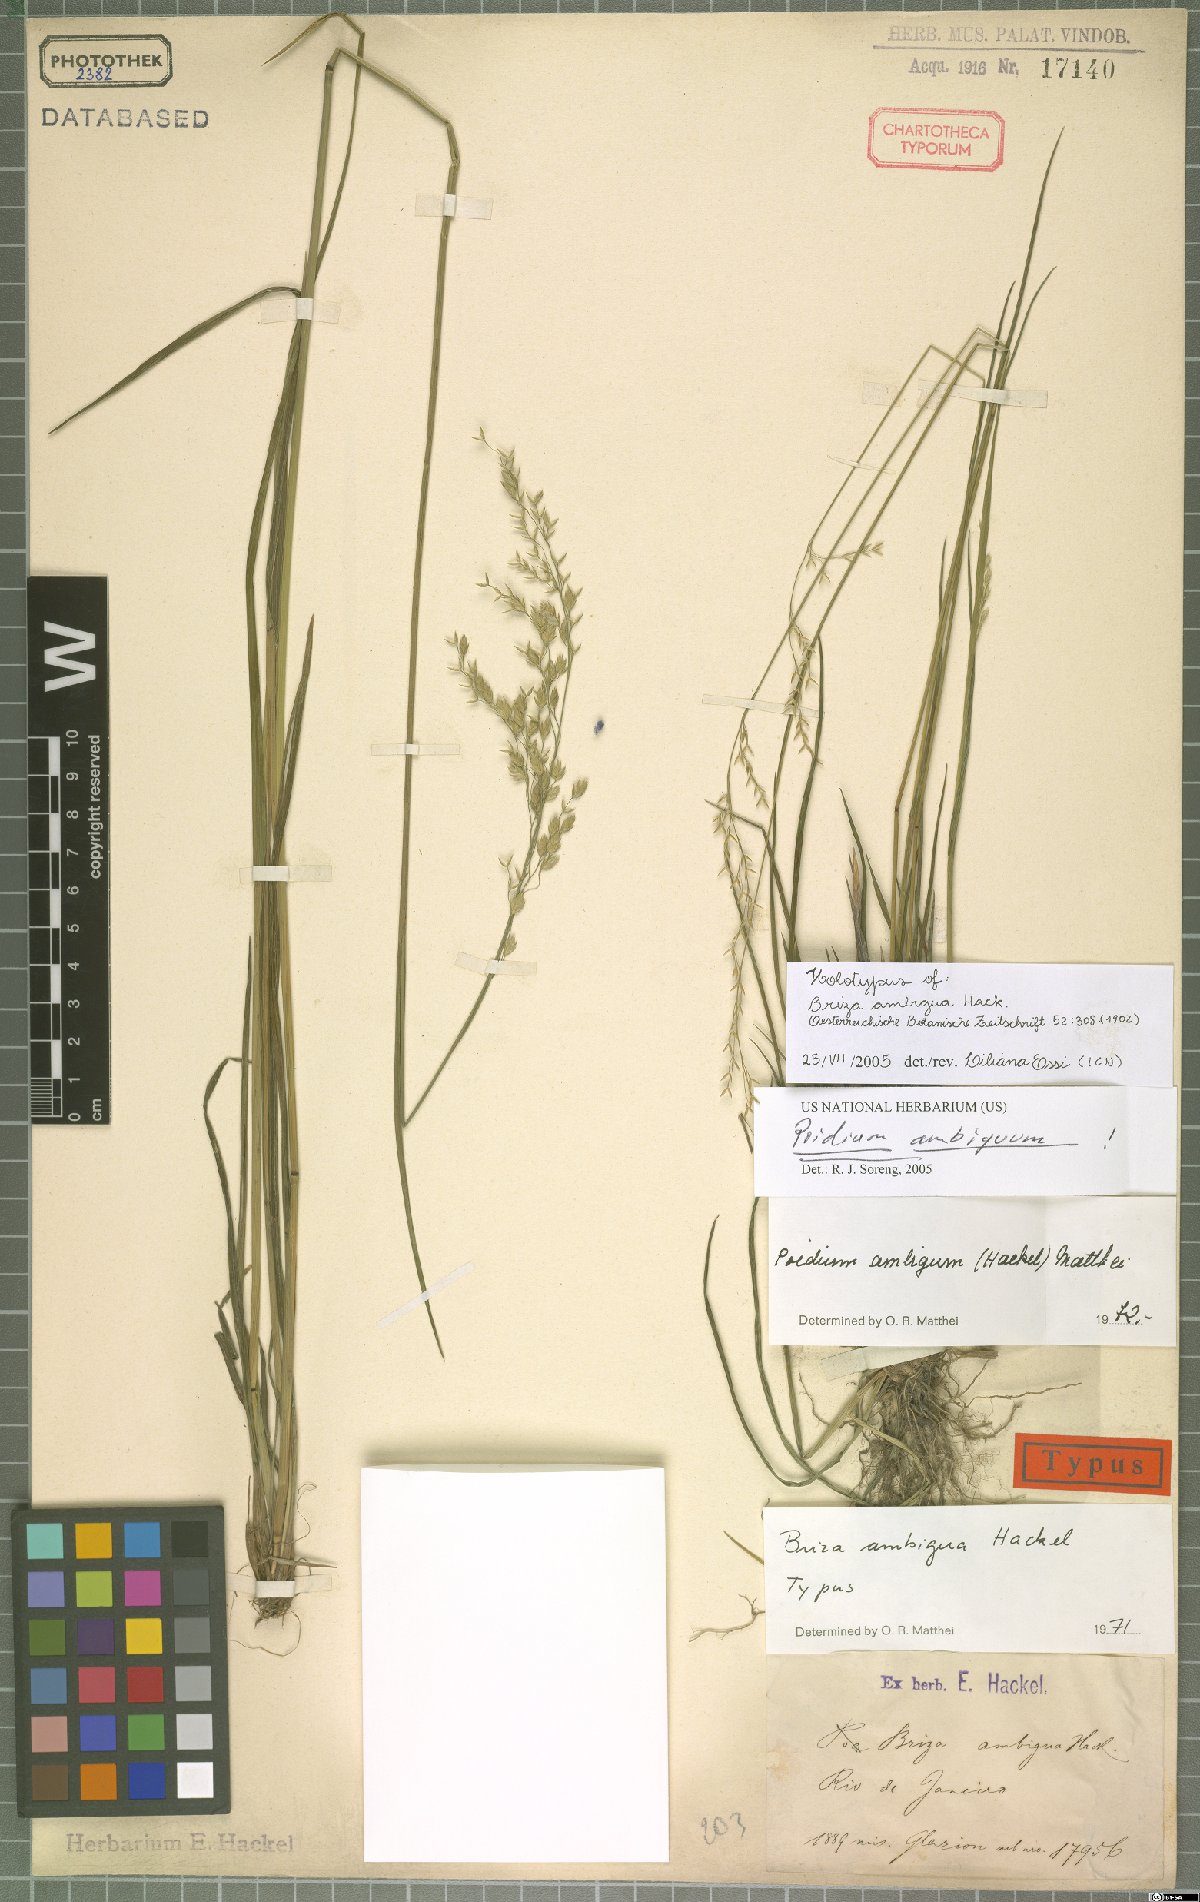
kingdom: Plantae
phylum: Tracheophyta
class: Liliopsida
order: Poales
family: Poaceae
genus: Poidium
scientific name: Poidium ambiguum
